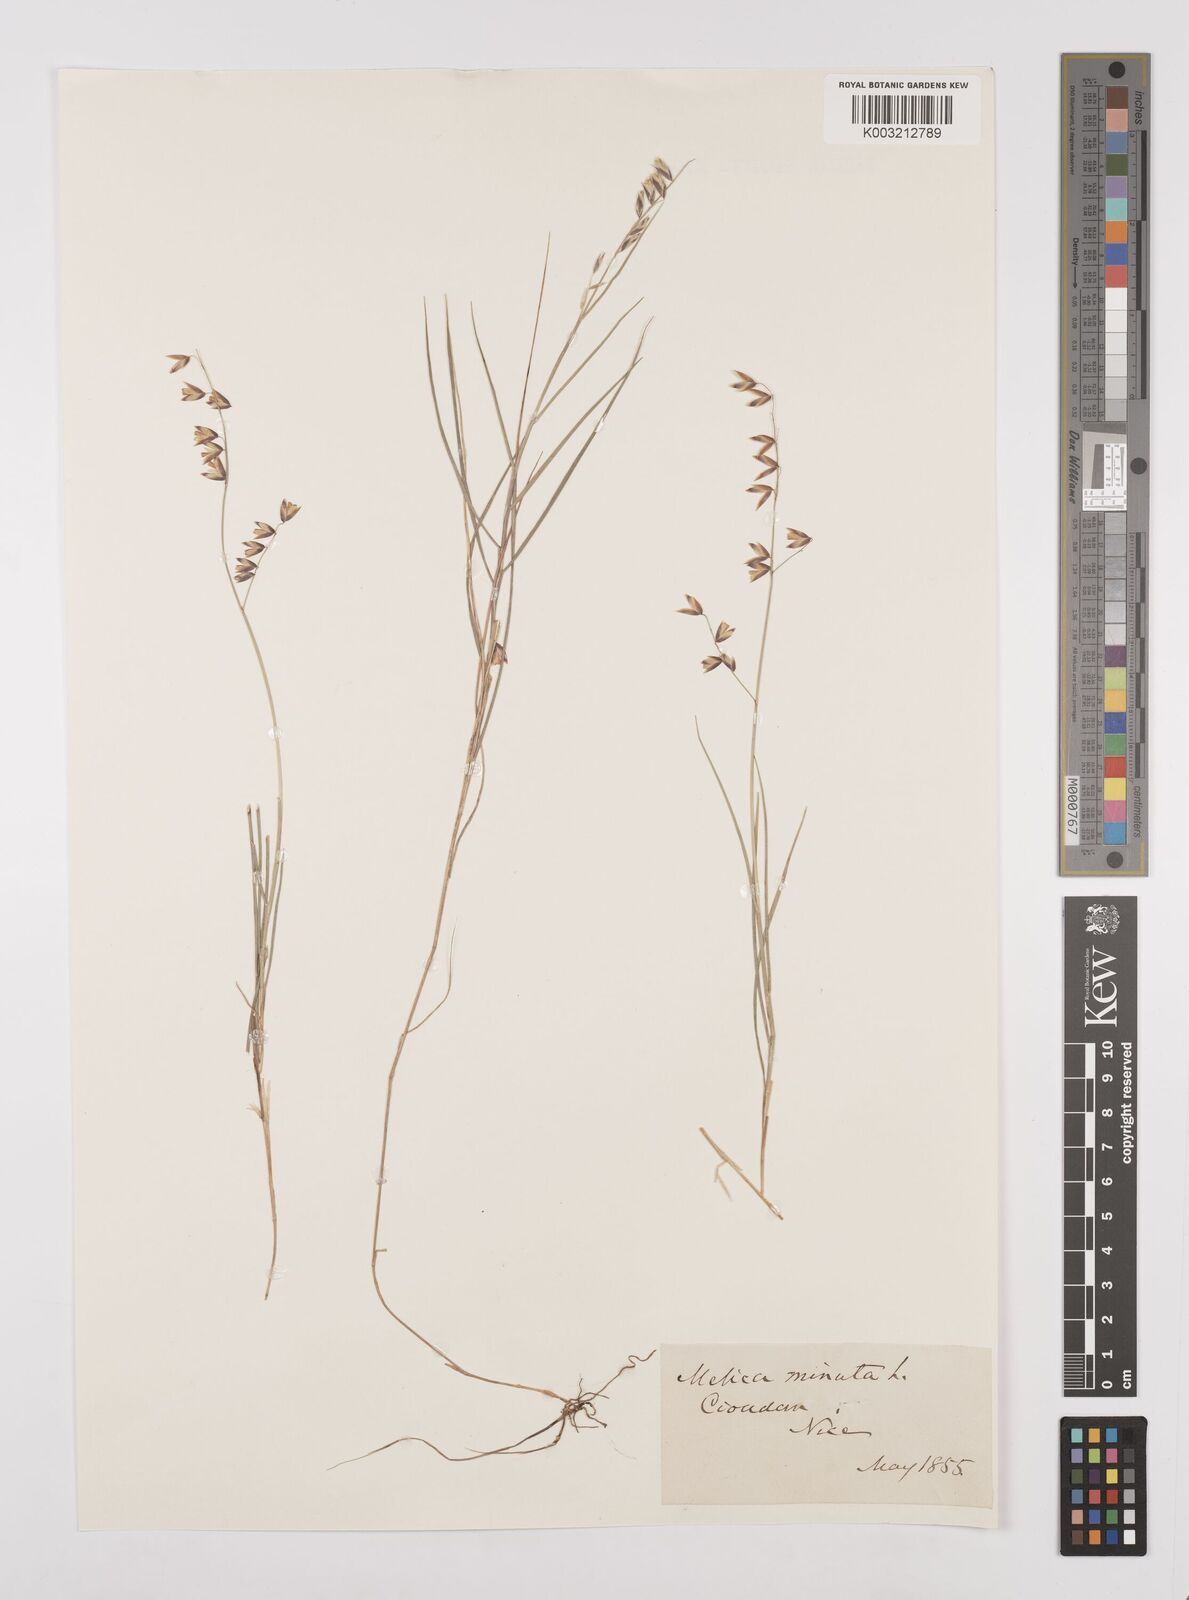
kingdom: Plantae
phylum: Tracheophyta
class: Liliopsida
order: Poales
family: Poaceae
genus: Melica
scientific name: Melica minuta
